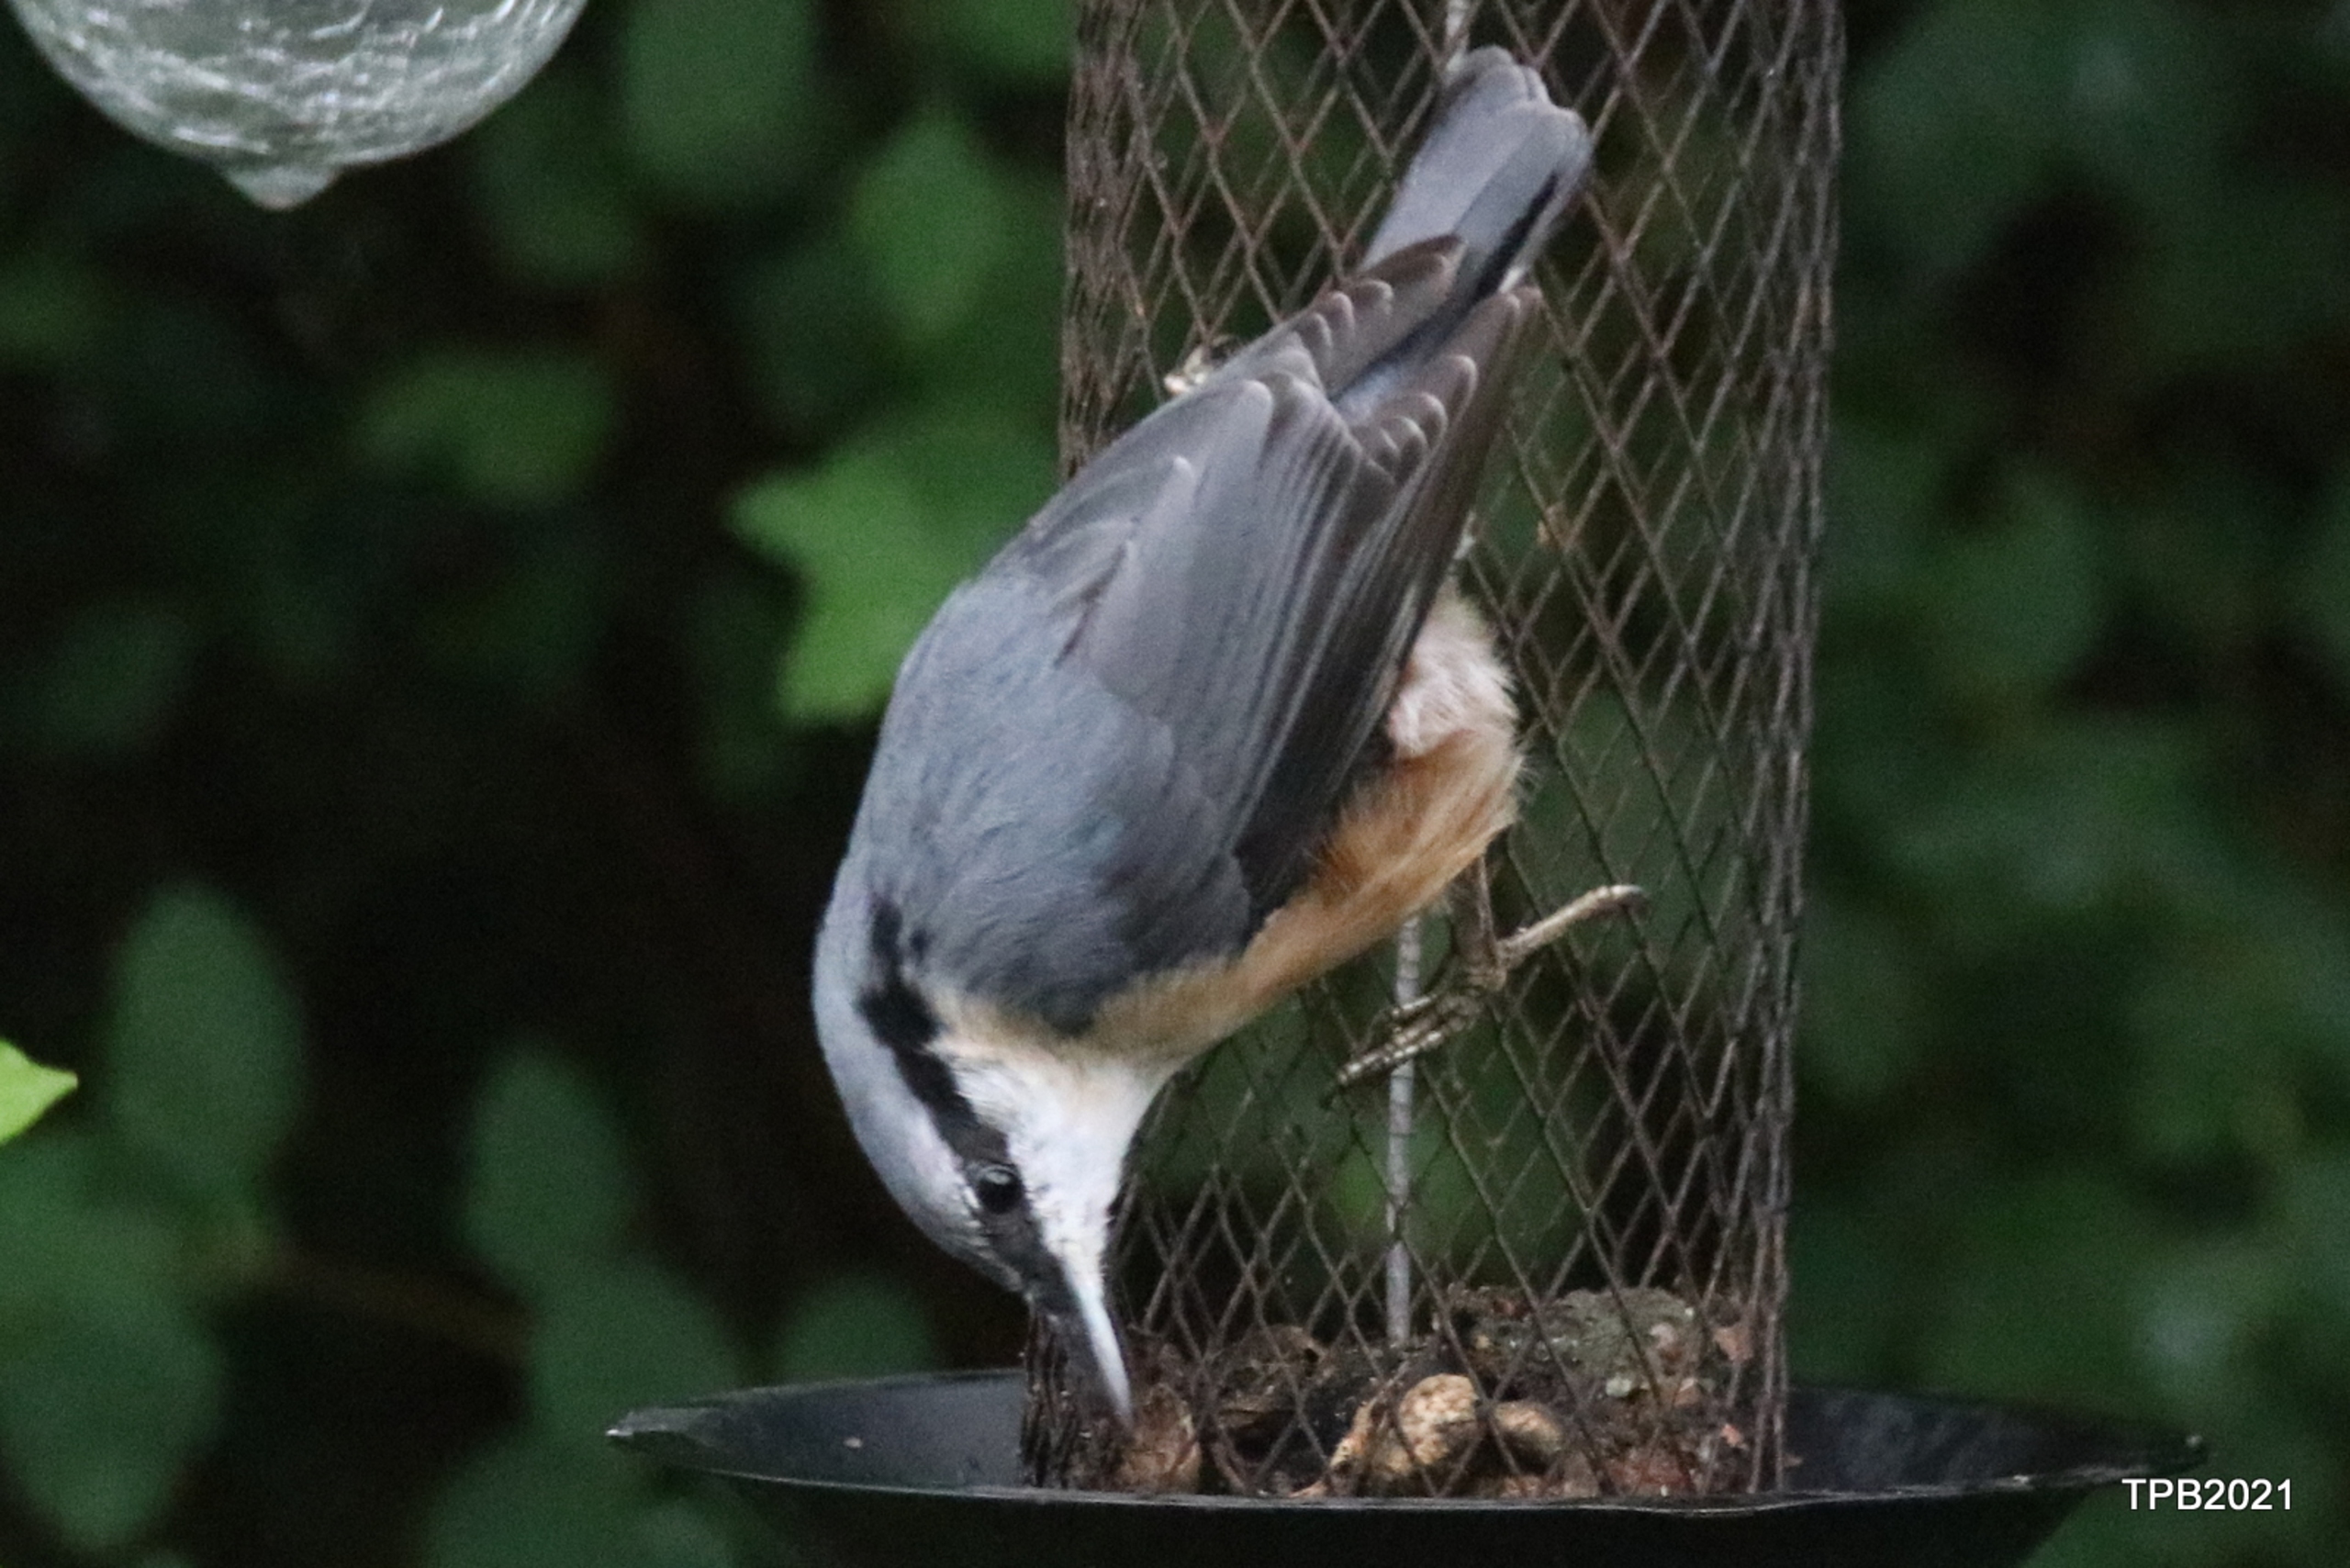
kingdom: Animalia
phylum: Chordata
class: Aves
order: Passeriformes
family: Sittidae
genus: Sitta
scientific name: Sitta europaea
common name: Spætmejse
